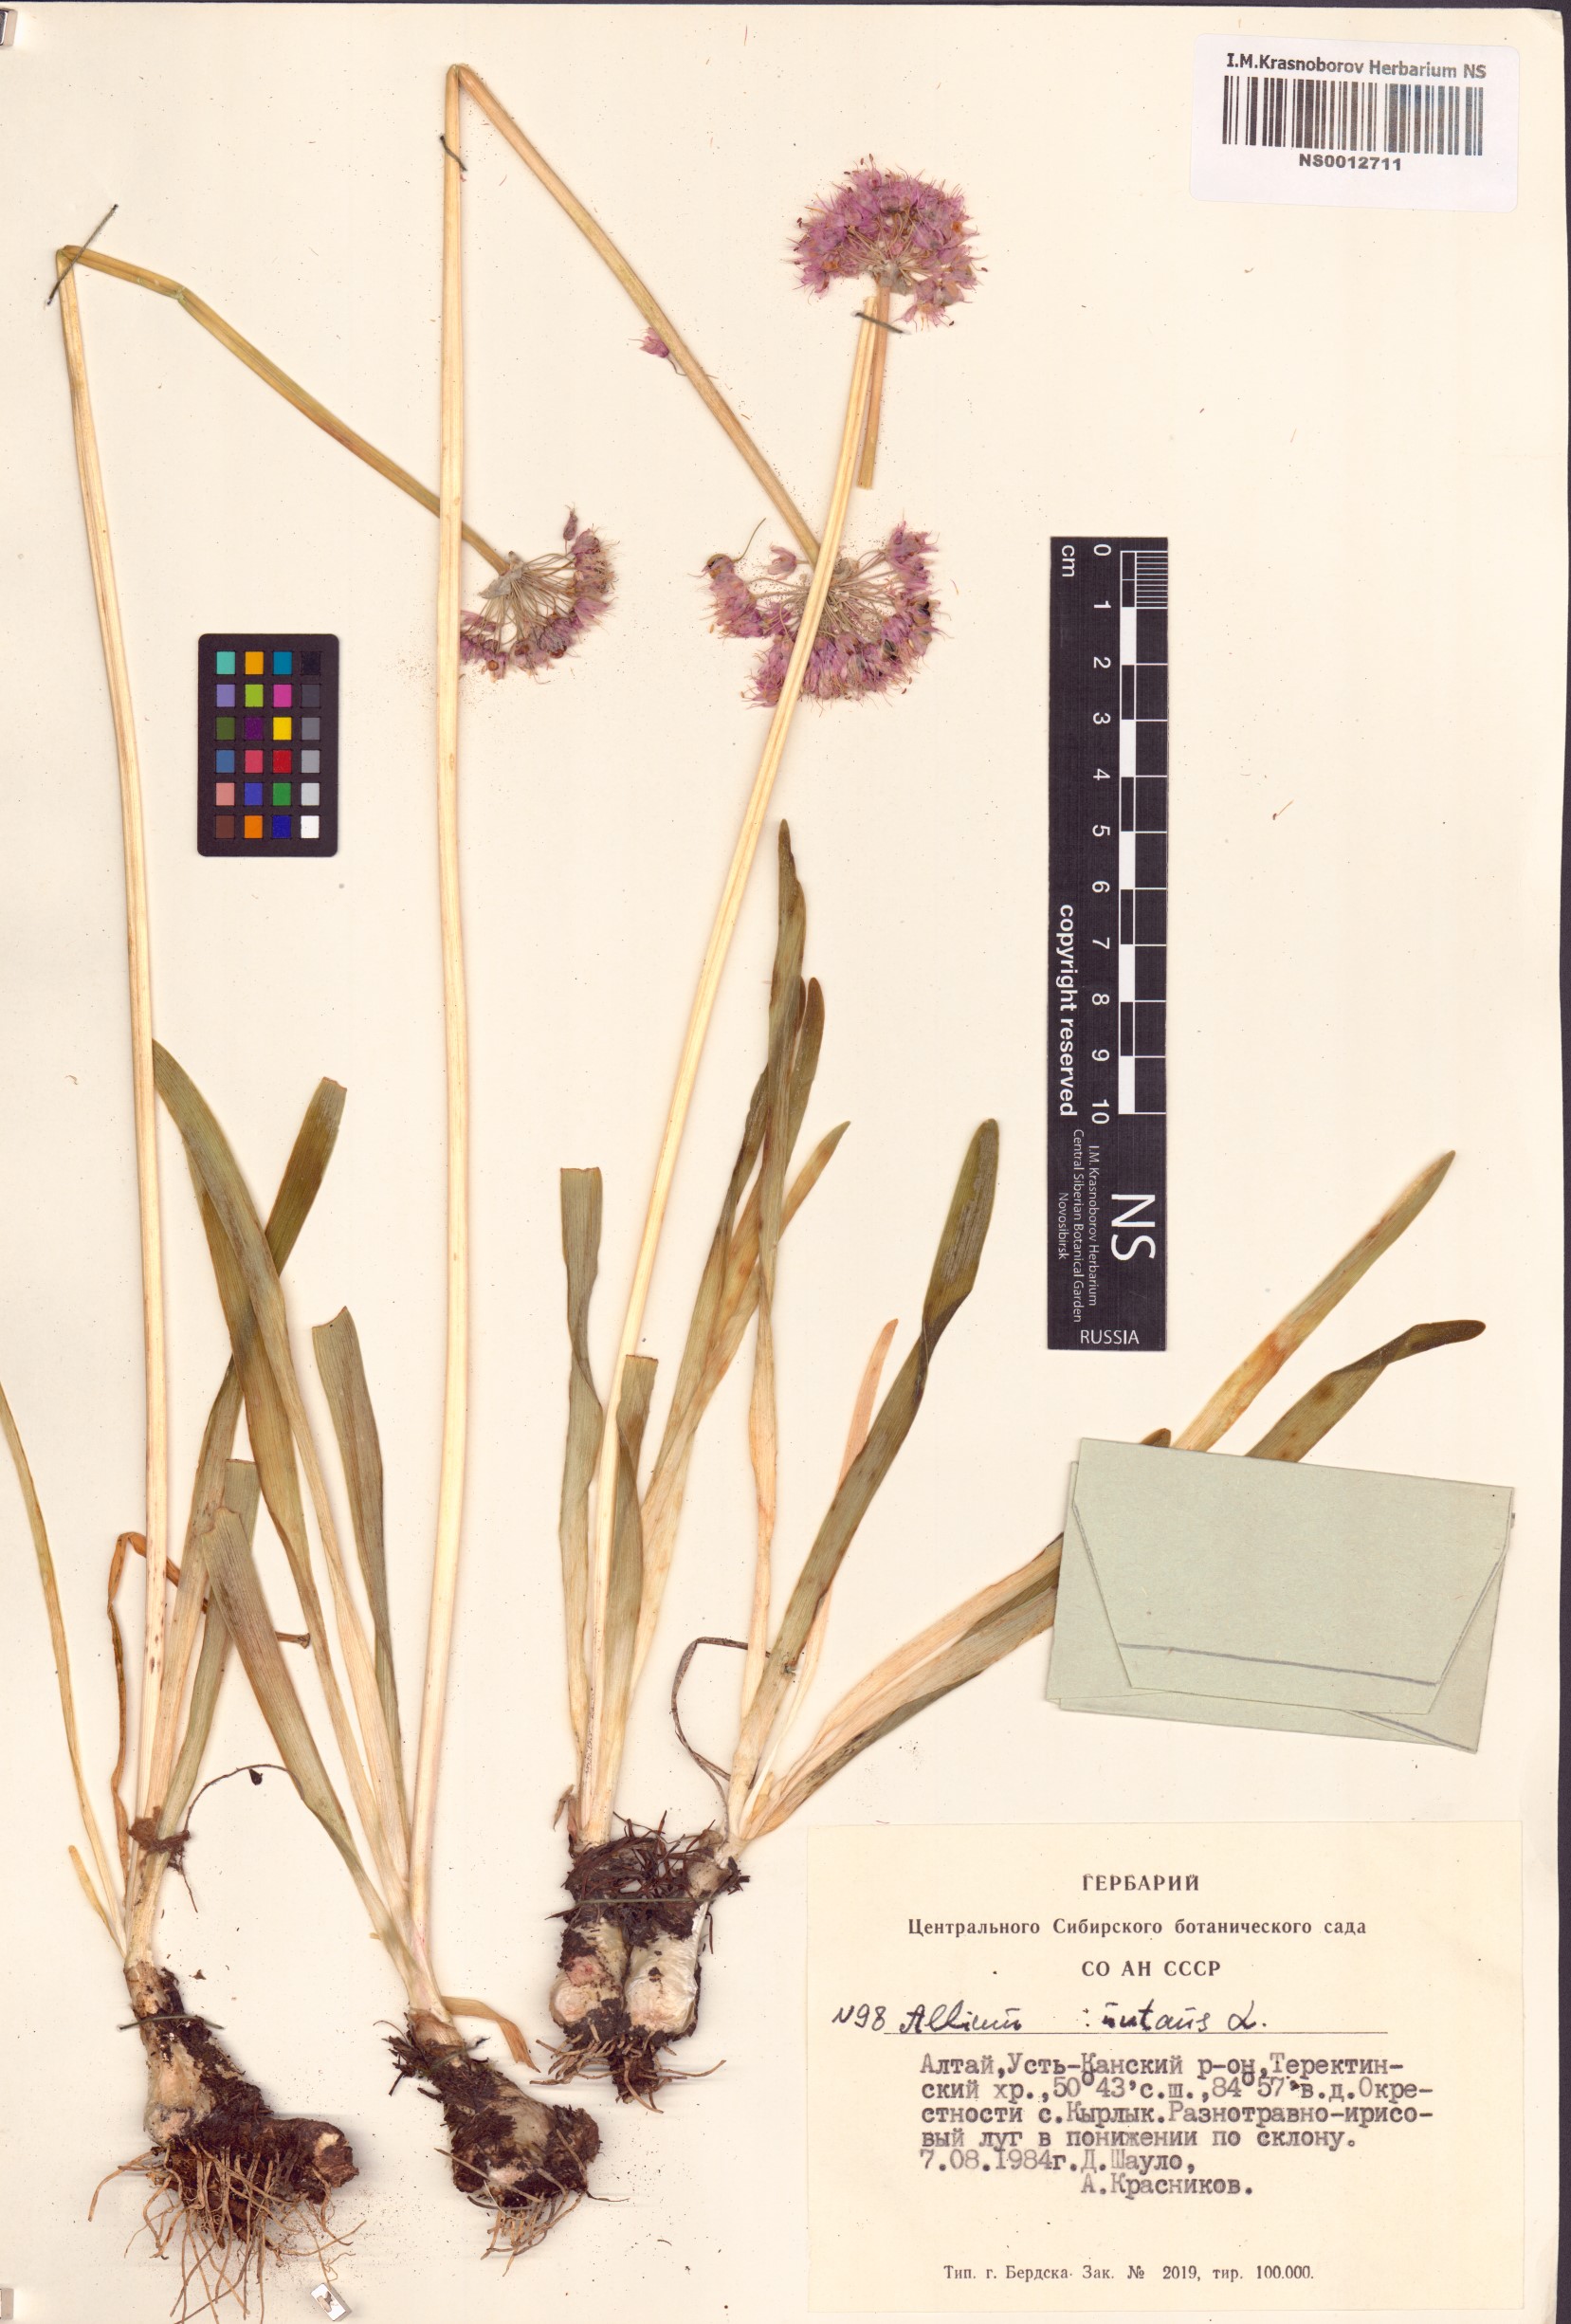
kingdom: Plantae
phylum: Tracheophyta
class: Liliopsida
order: Asparagales
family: Amaryllidaceae
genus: Allium
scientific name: Allium nutans
